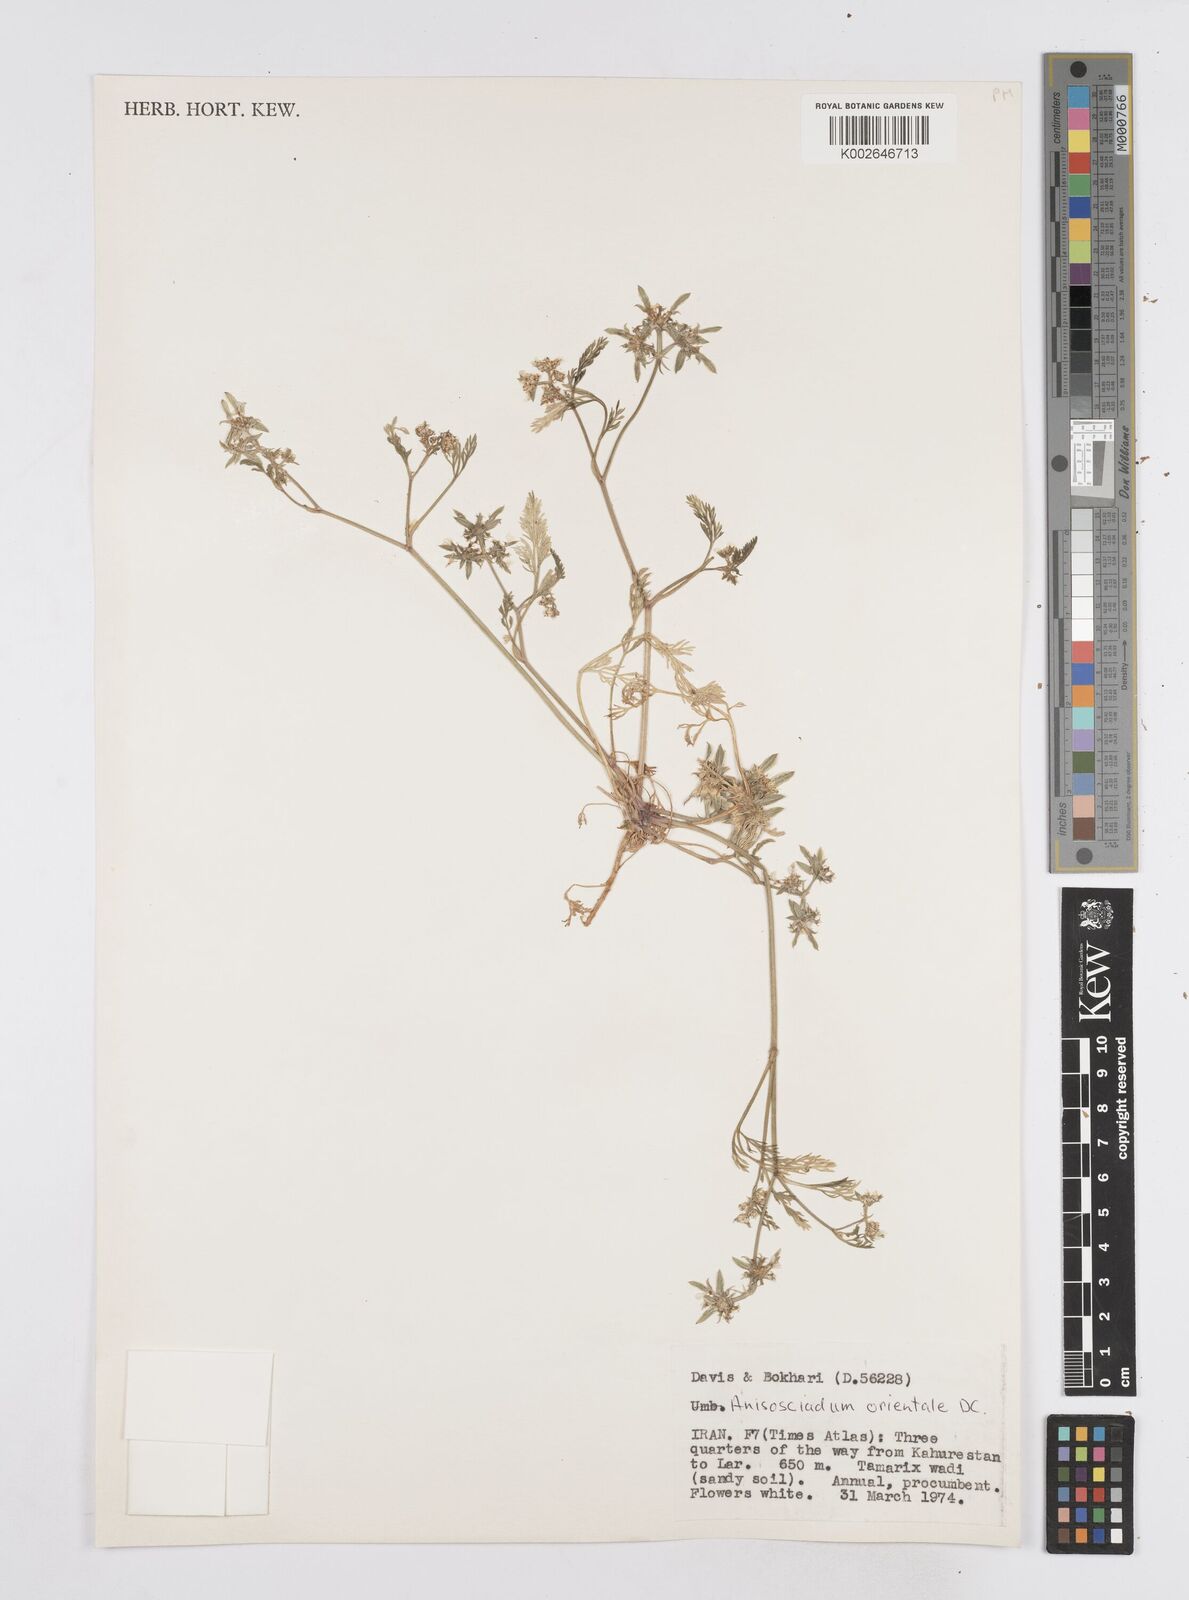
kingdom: Plantae
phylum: Tracheophyta
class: Magnoliopsida
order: Apiales
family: Apiaceae
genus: Anisosciadium
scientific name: Anisosciadium orientale
